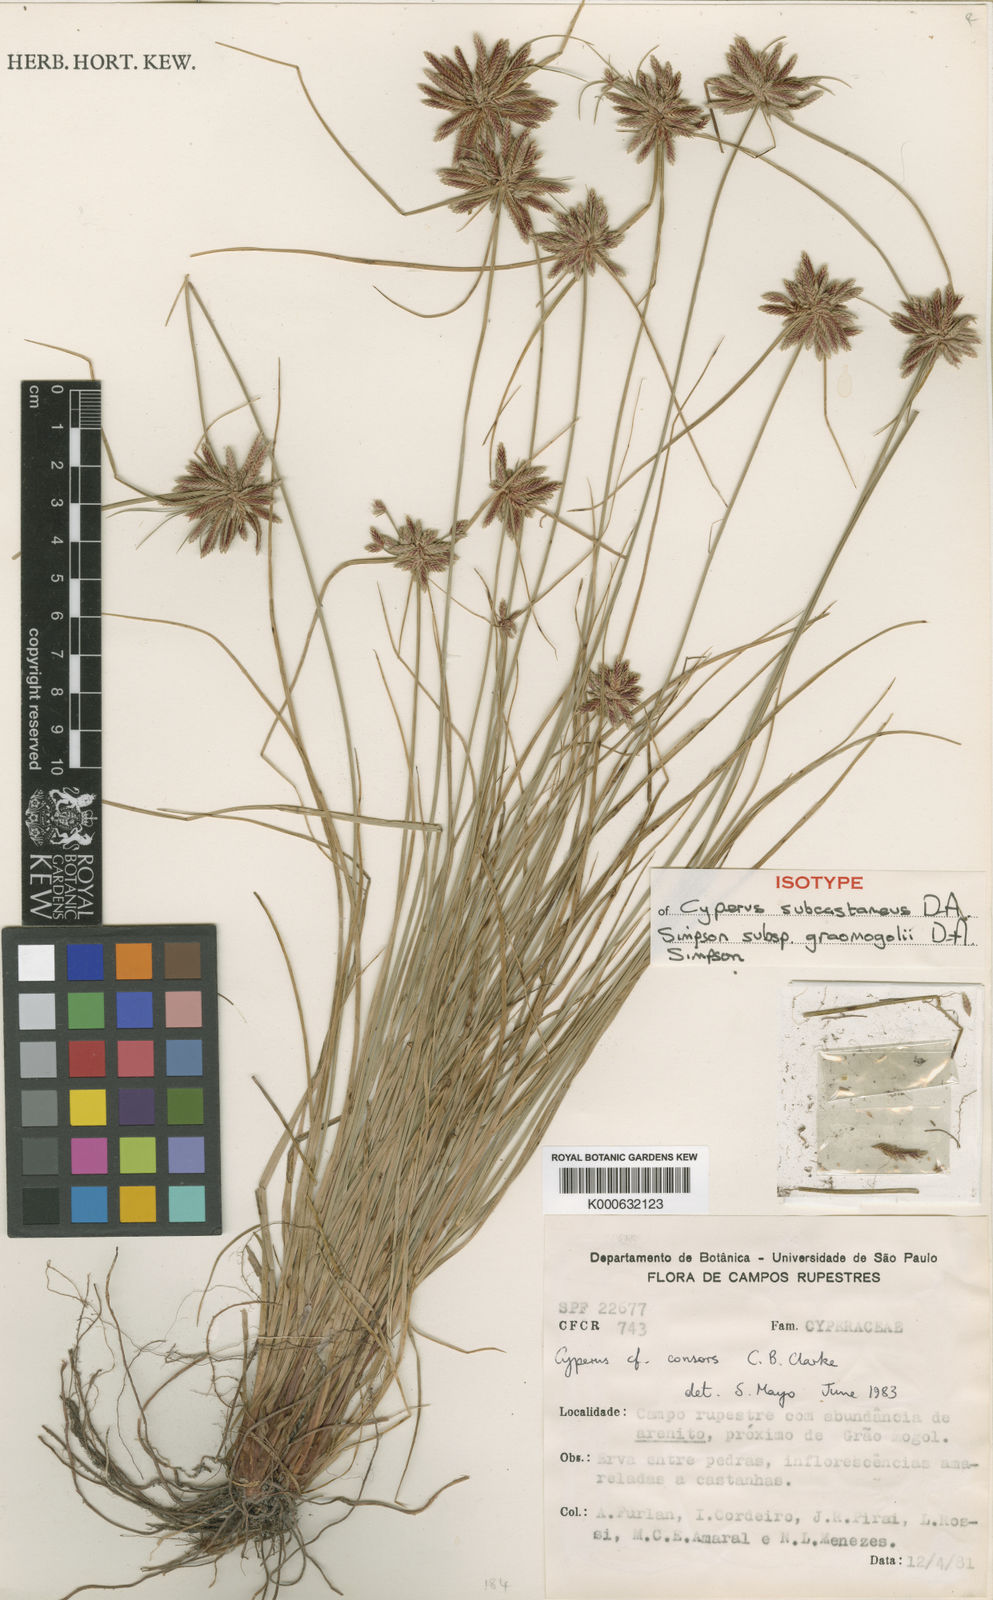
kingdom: Plantae
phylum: Tracheophyta
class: Liliopsida
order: Poales
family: Cyperaceae
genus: Cyperus
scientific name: Cyperus subcastaneus
